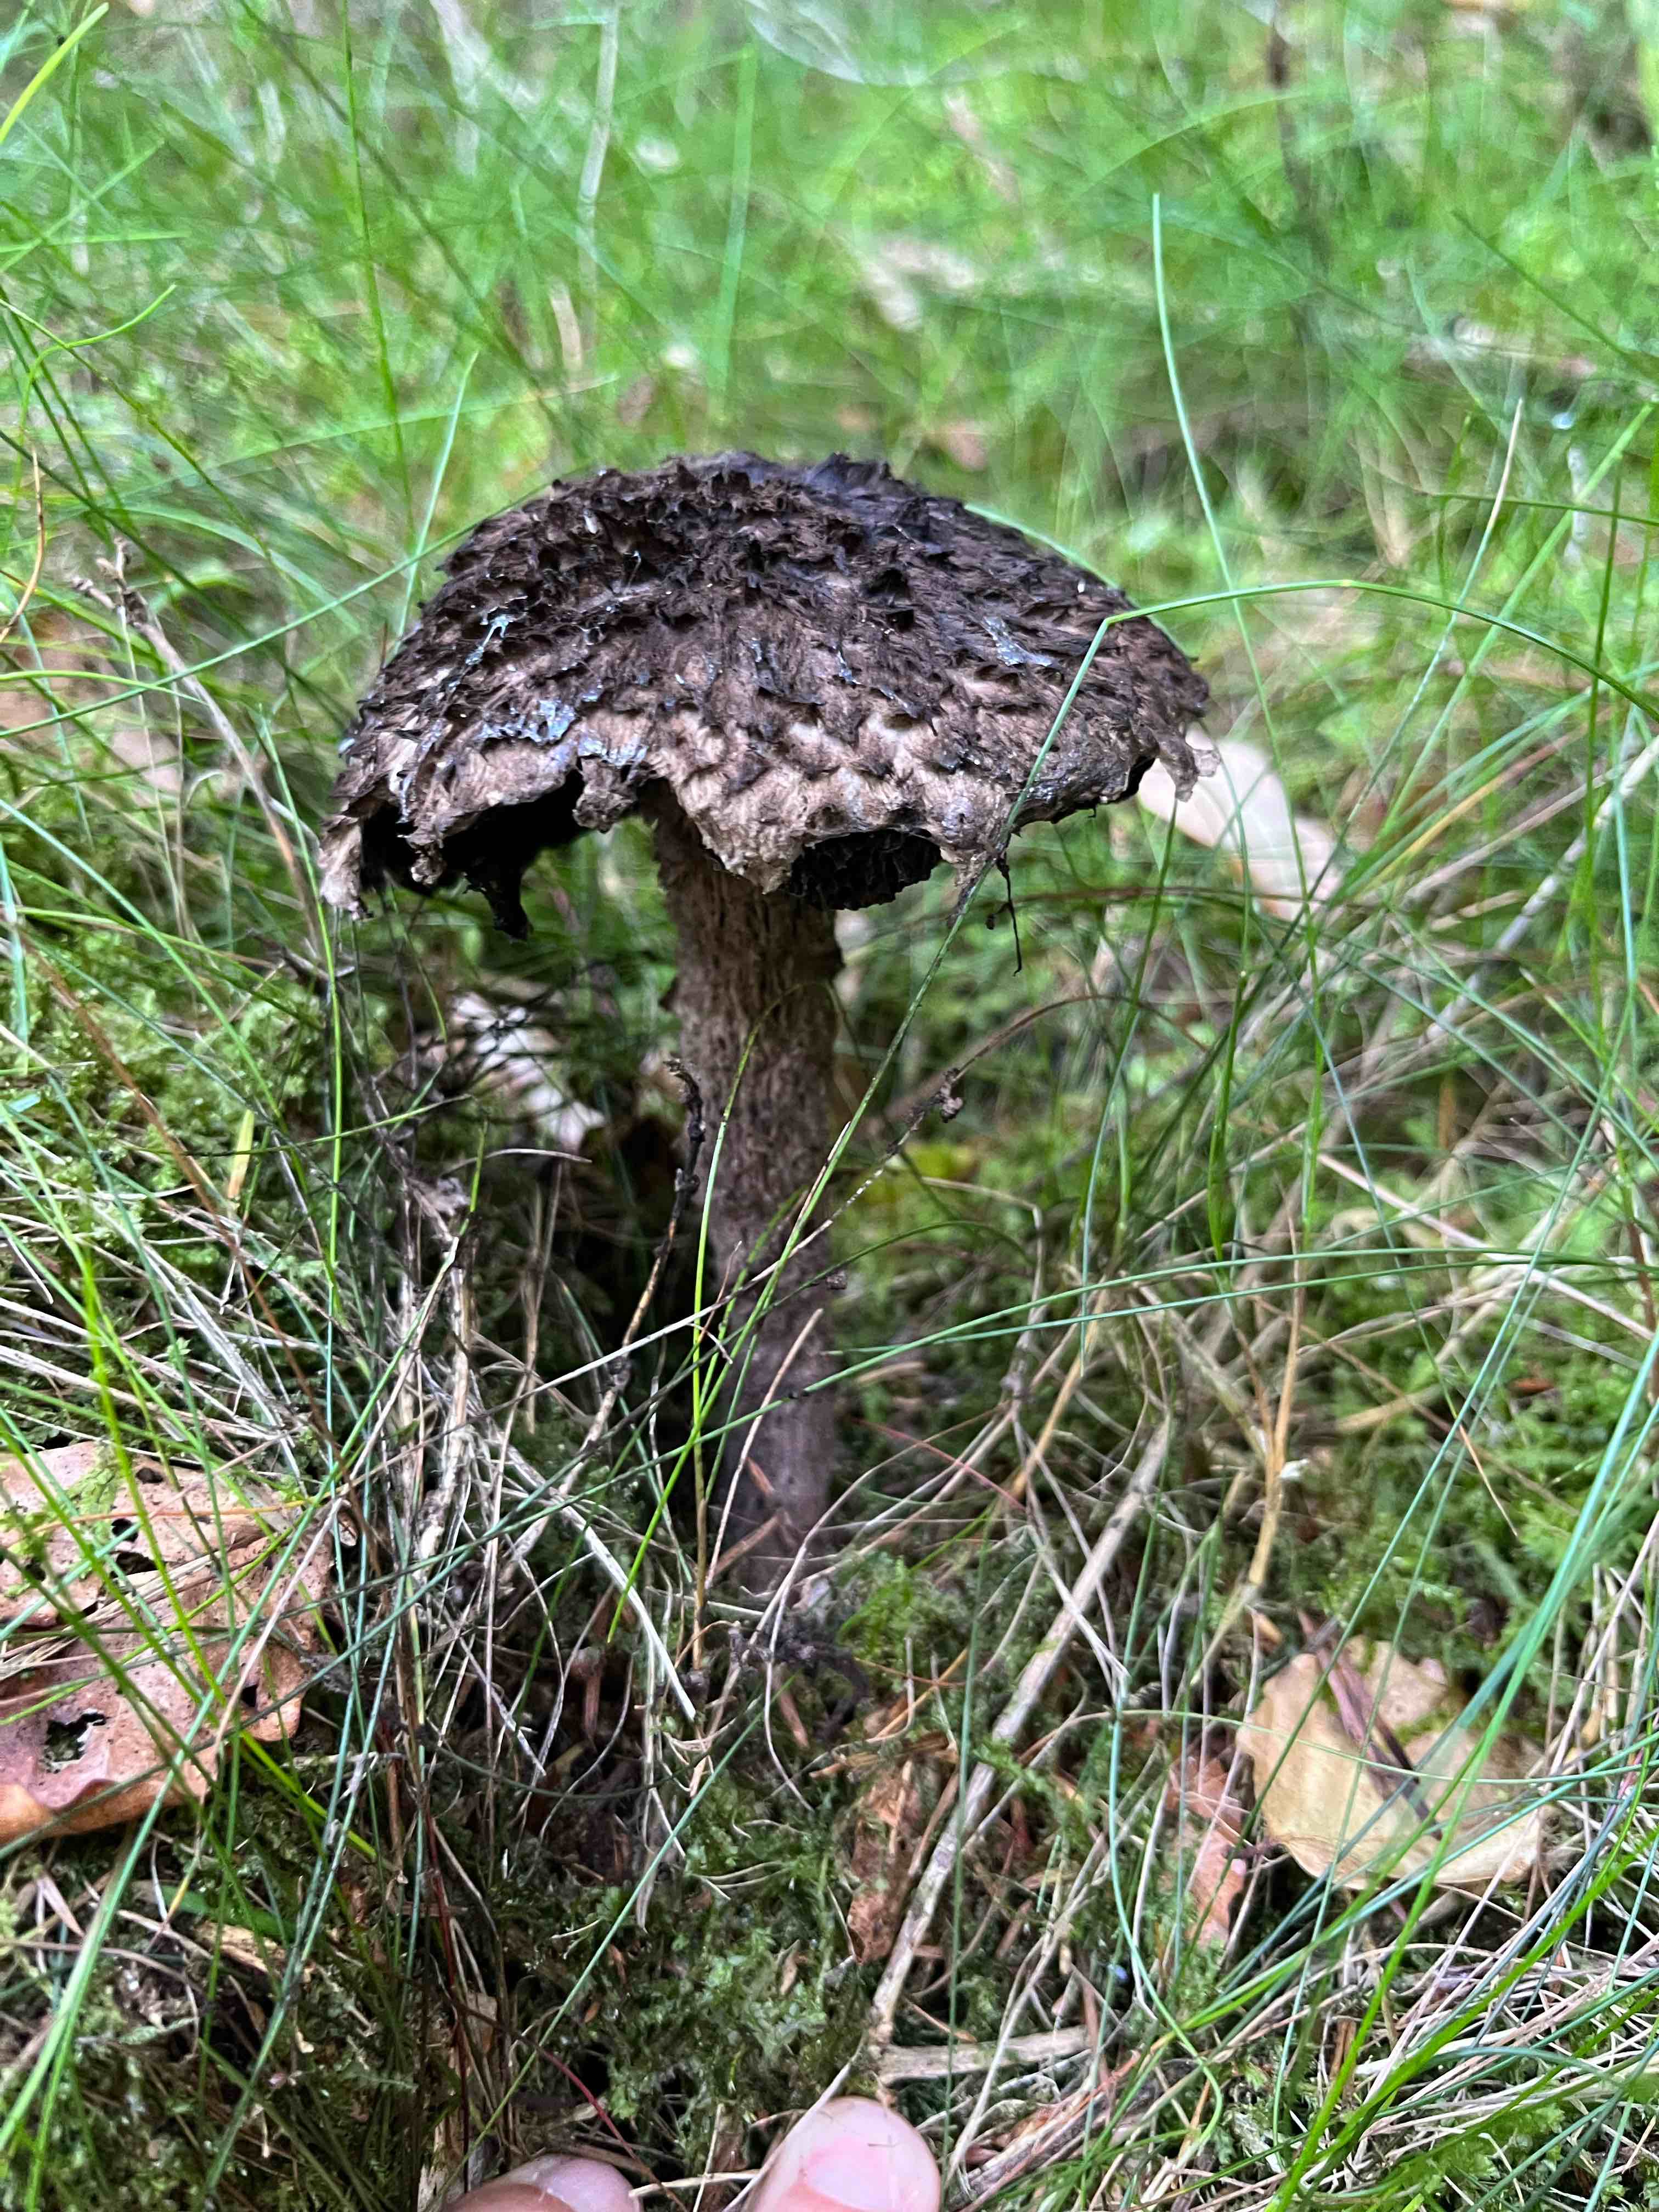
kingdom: Fungi
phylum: Basidiomycota
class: Agaricomycetes
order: Boletales
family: Boletaceae
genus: Strobilomyces
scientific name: Strobilomyces strobilaceus
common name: koglerørhat
